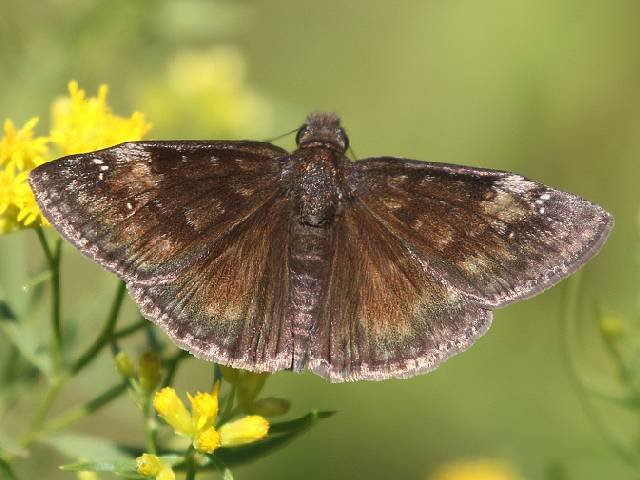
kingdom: Animalia
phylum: Arthropoda
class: Insecta
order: Lepidoptera
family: Hesperiidae
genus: Gesta
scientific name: Gesta
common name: Wild Indigo Duskywing
